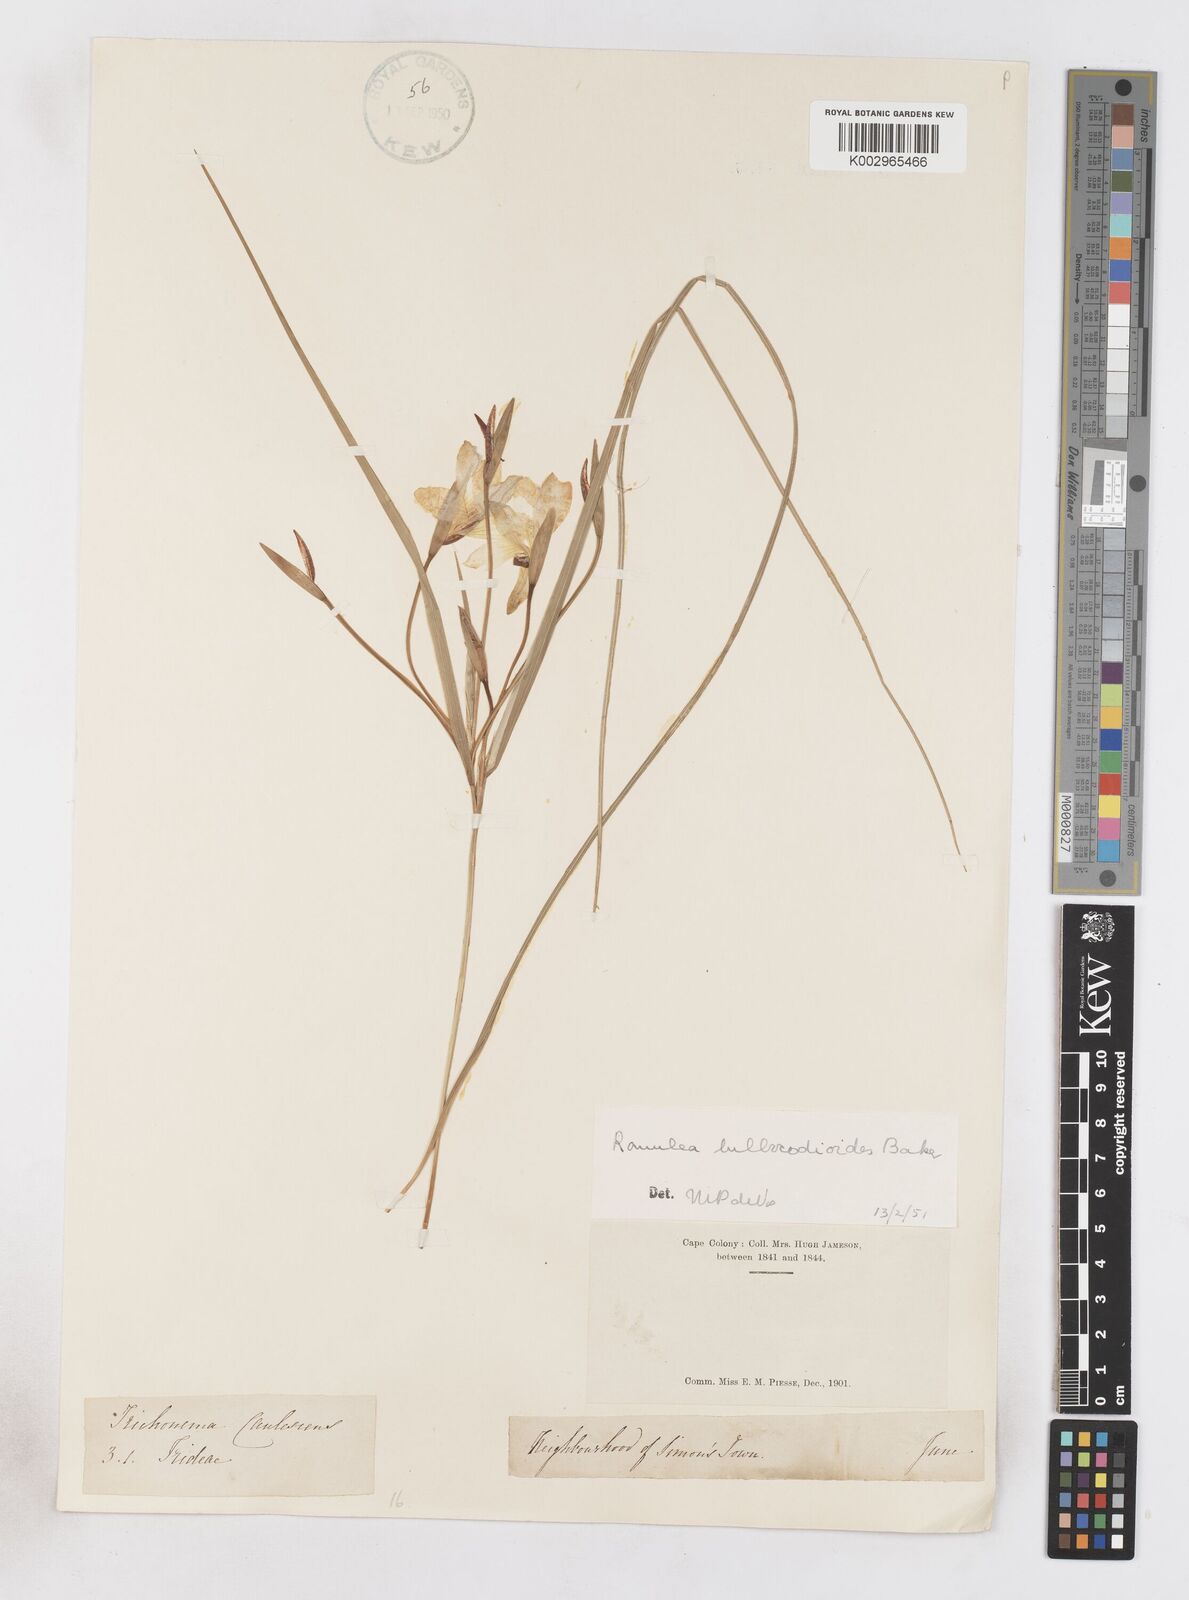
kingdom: Plantae
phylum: Tracheophyta
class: Liliopsida
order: Asparagales
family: Iridaceae
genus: Romulea
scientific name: Romulea flava
